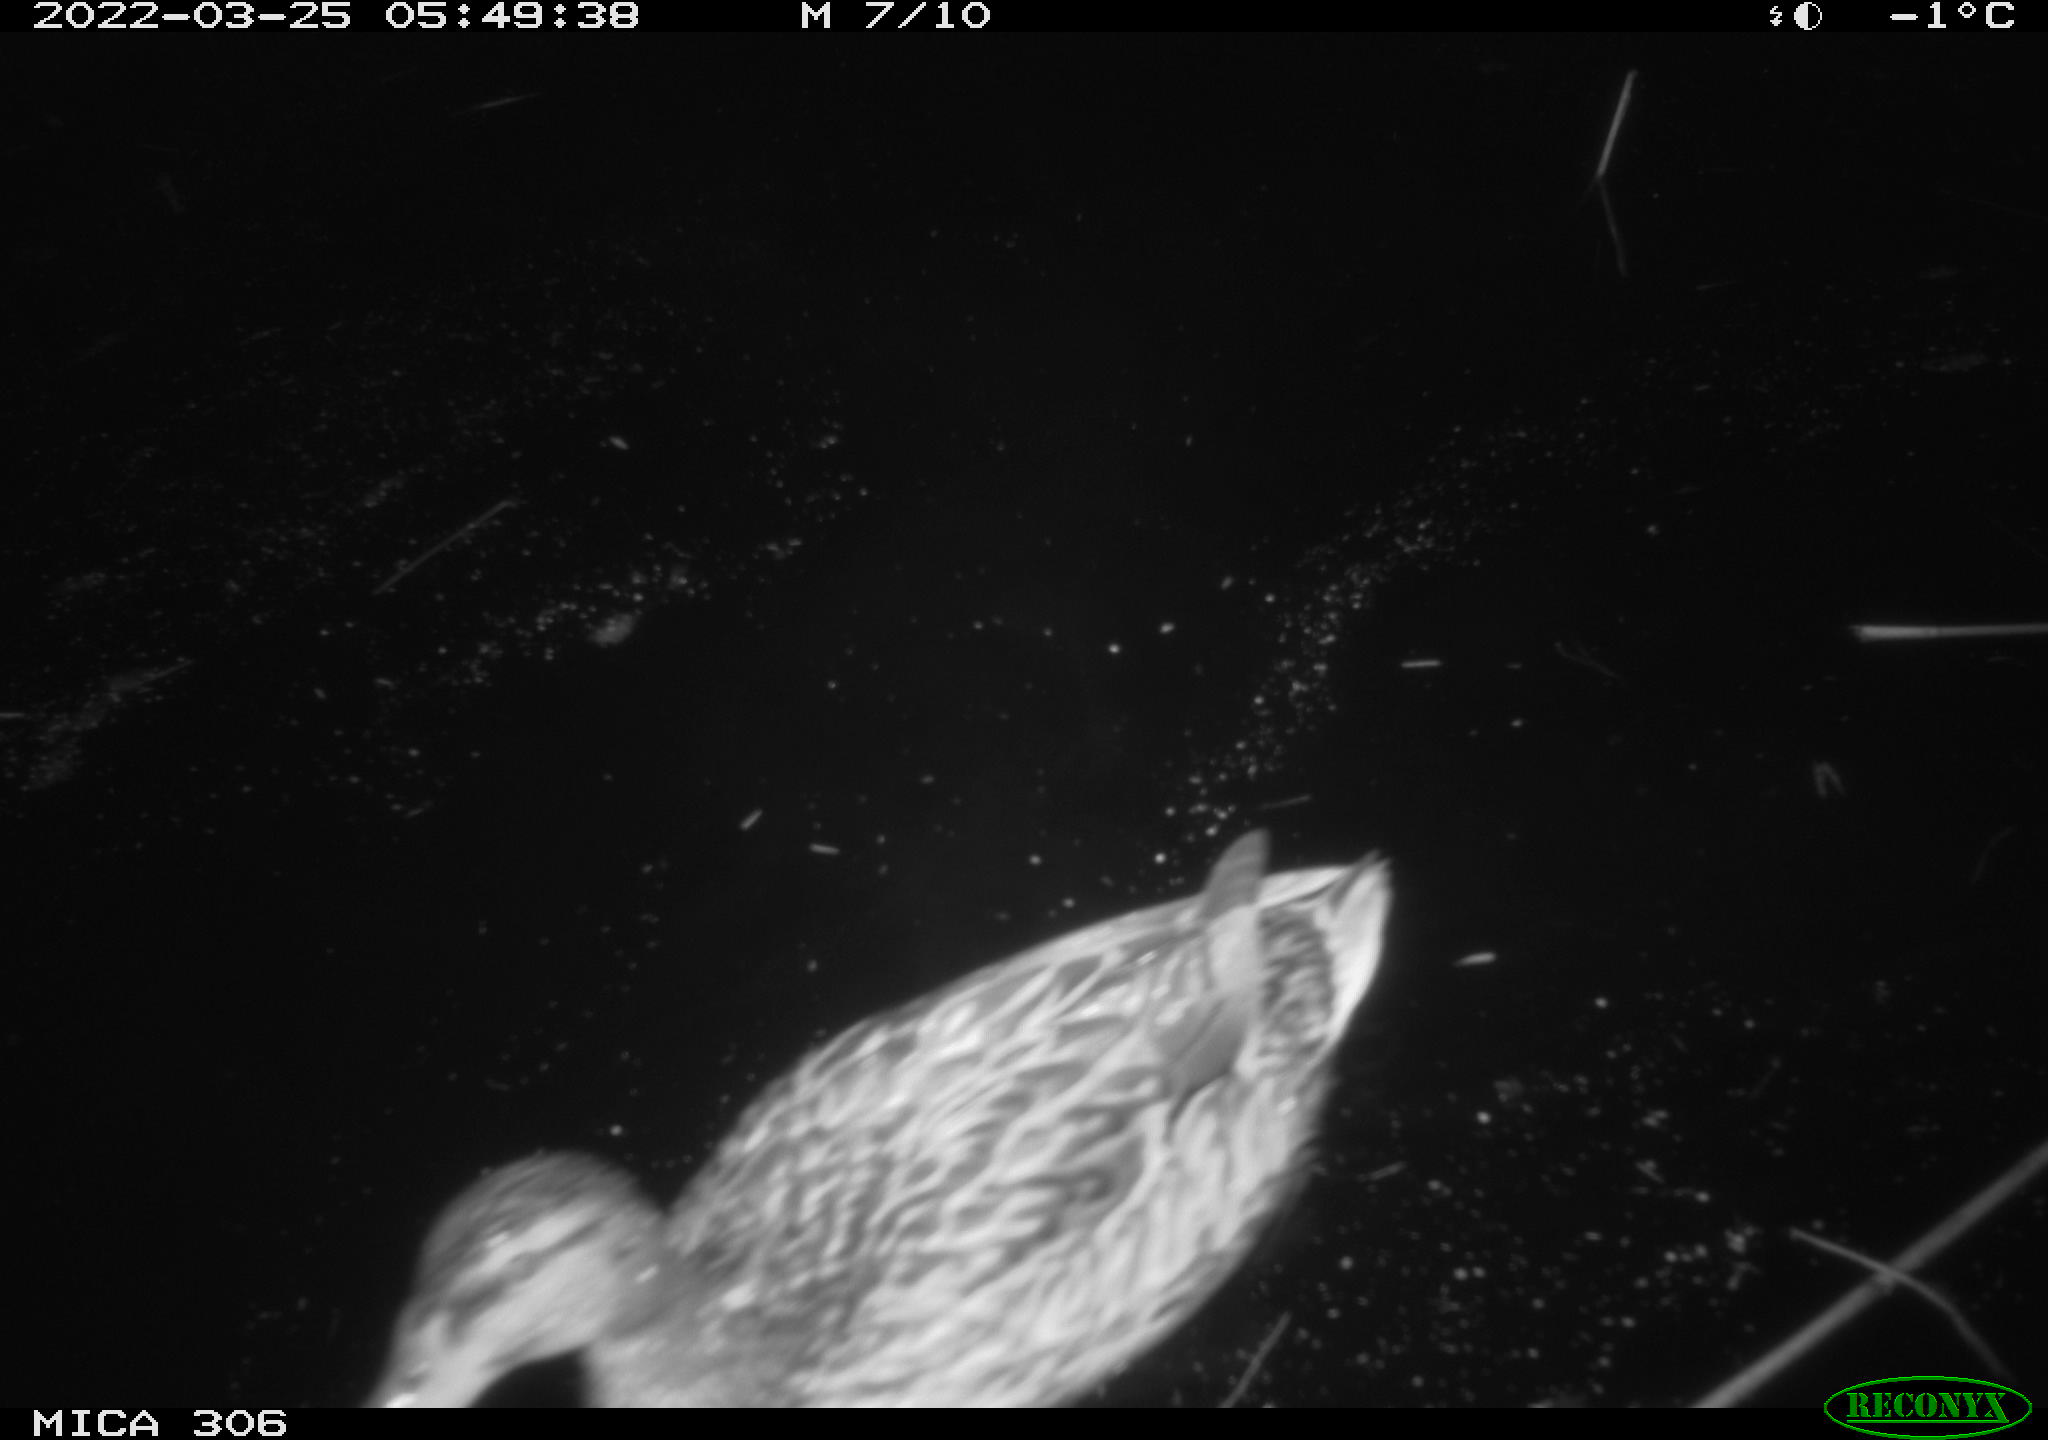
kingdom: Animalia
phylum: Chordata
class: Aves
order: Anseriformes
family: Anatidae
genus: Anas
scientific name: Anas
